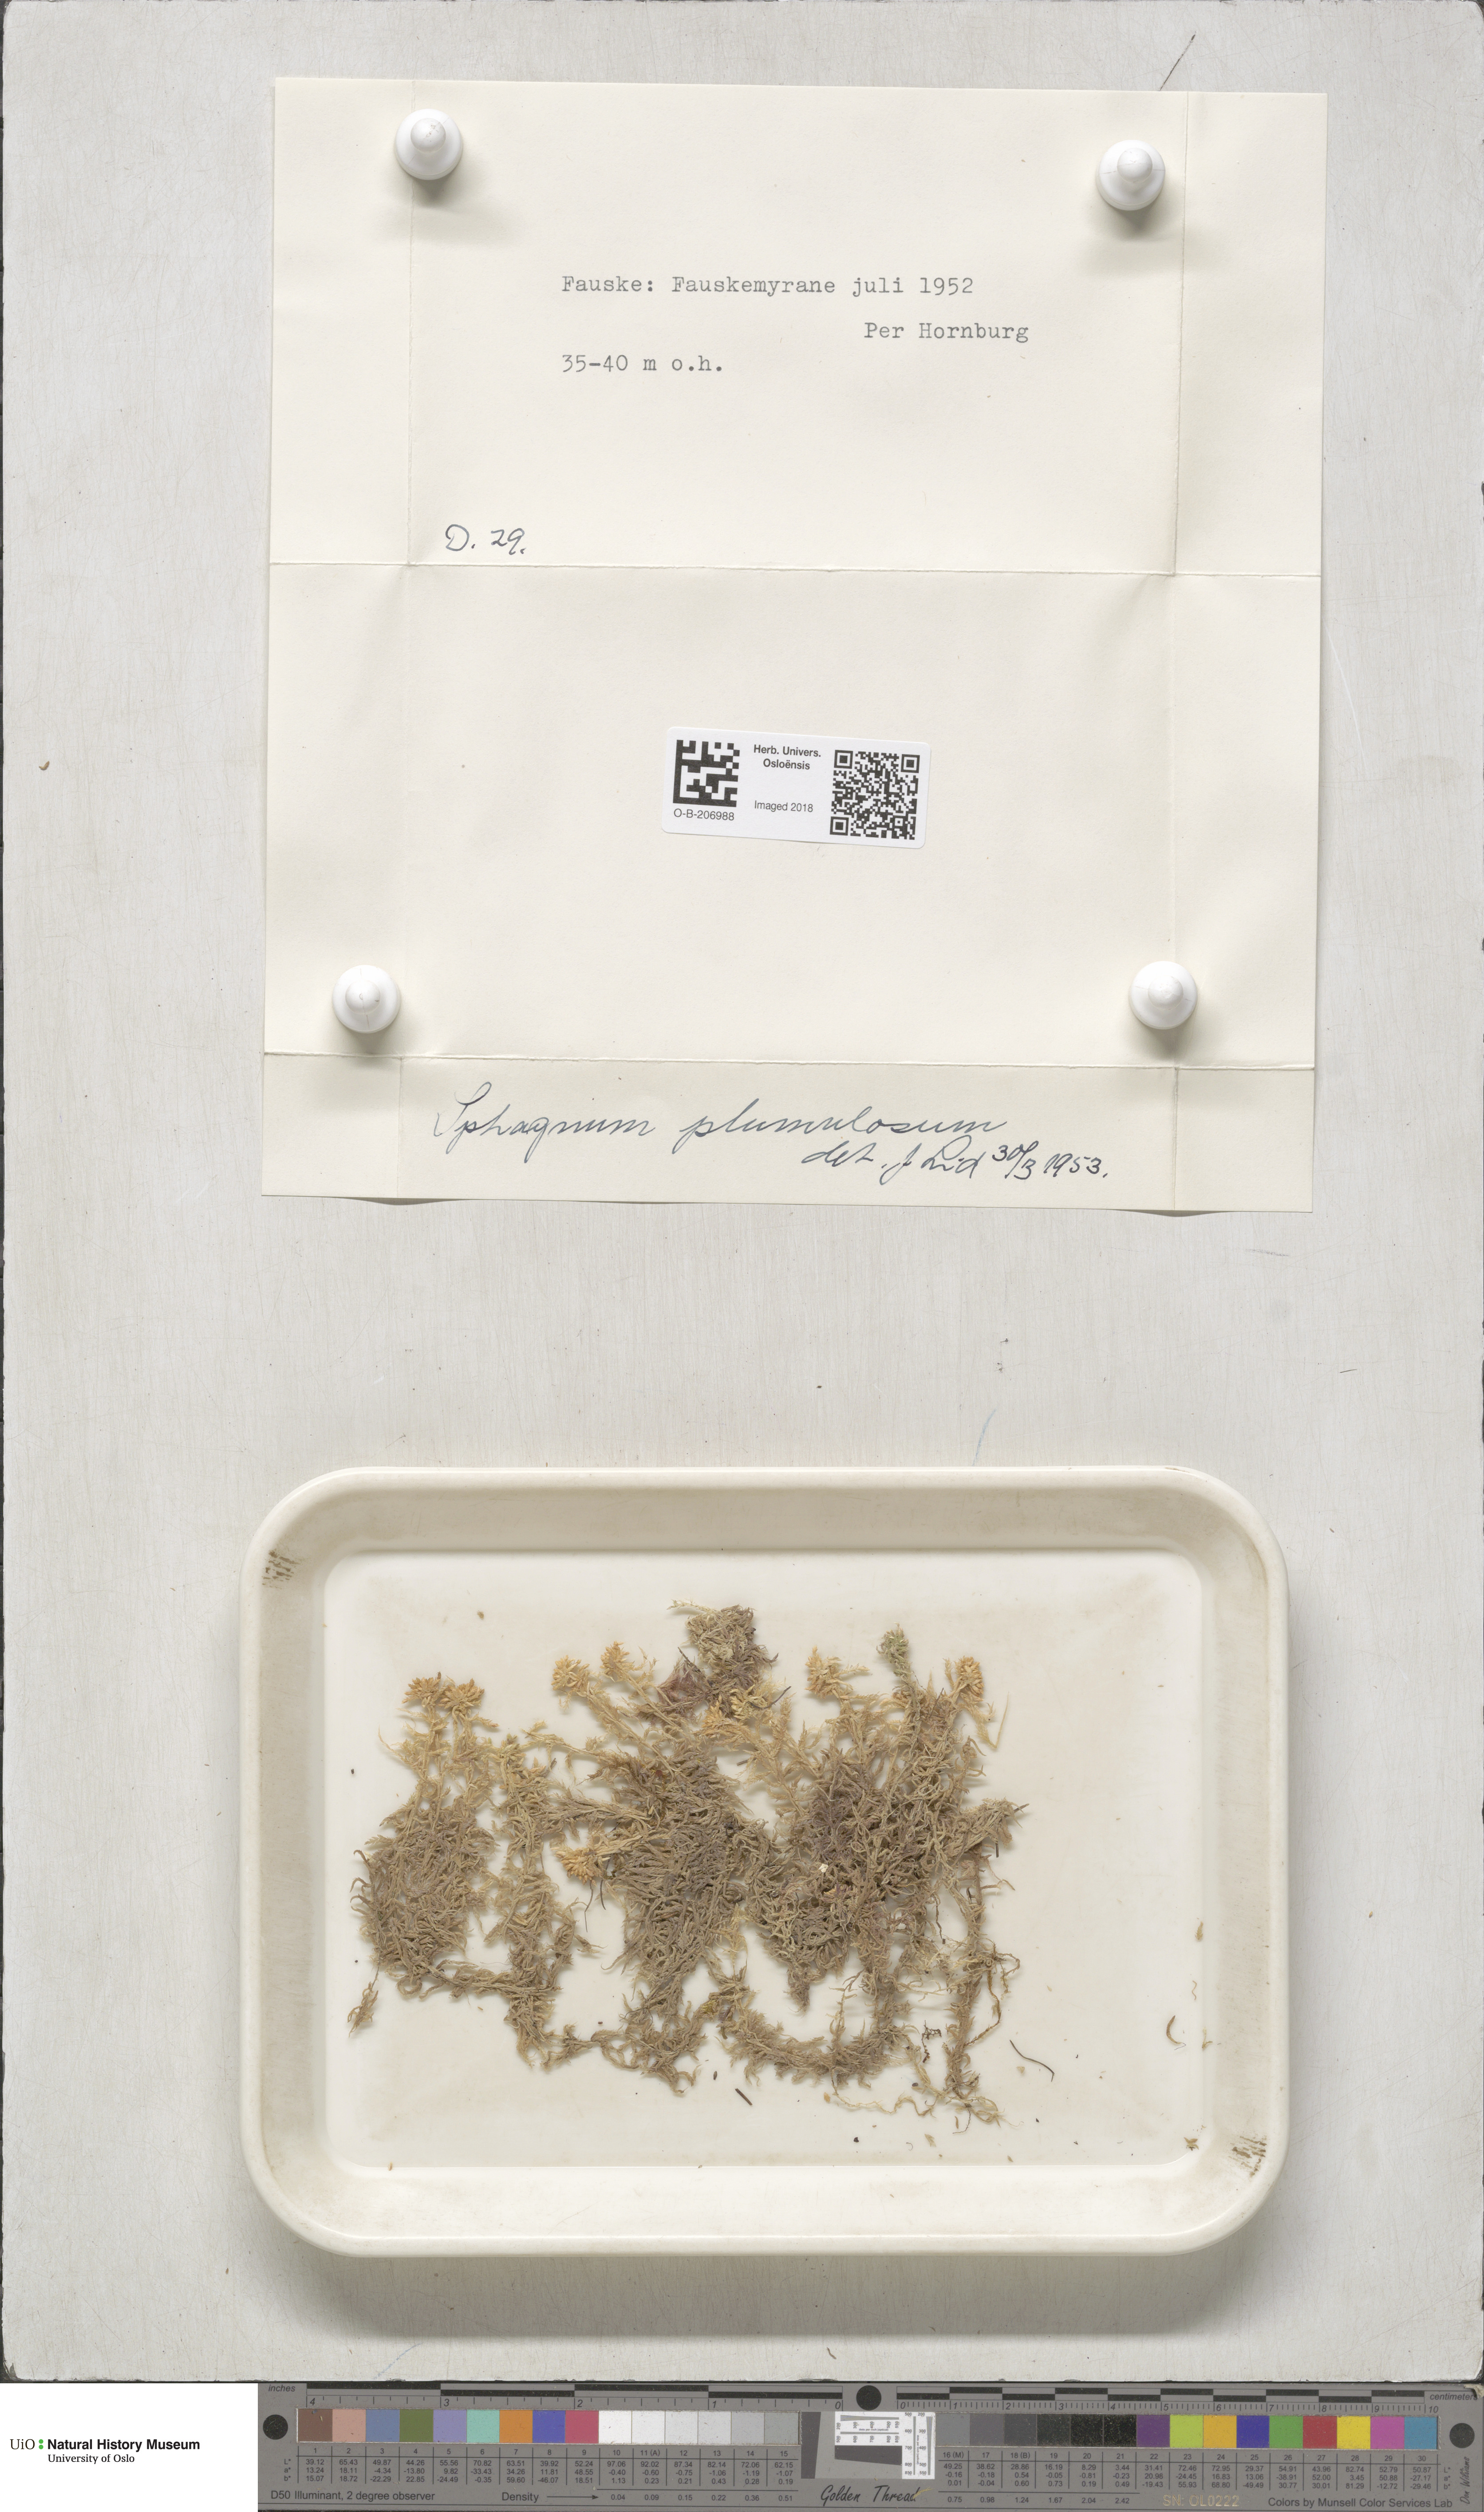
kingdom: Plantae
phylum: Bryophyta
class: Sphagnopsida
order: Sphagnales
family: Sphagnaceae
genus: Sphagnum
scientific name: Sphagnum subnitens
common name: Lustrous bog-moss
